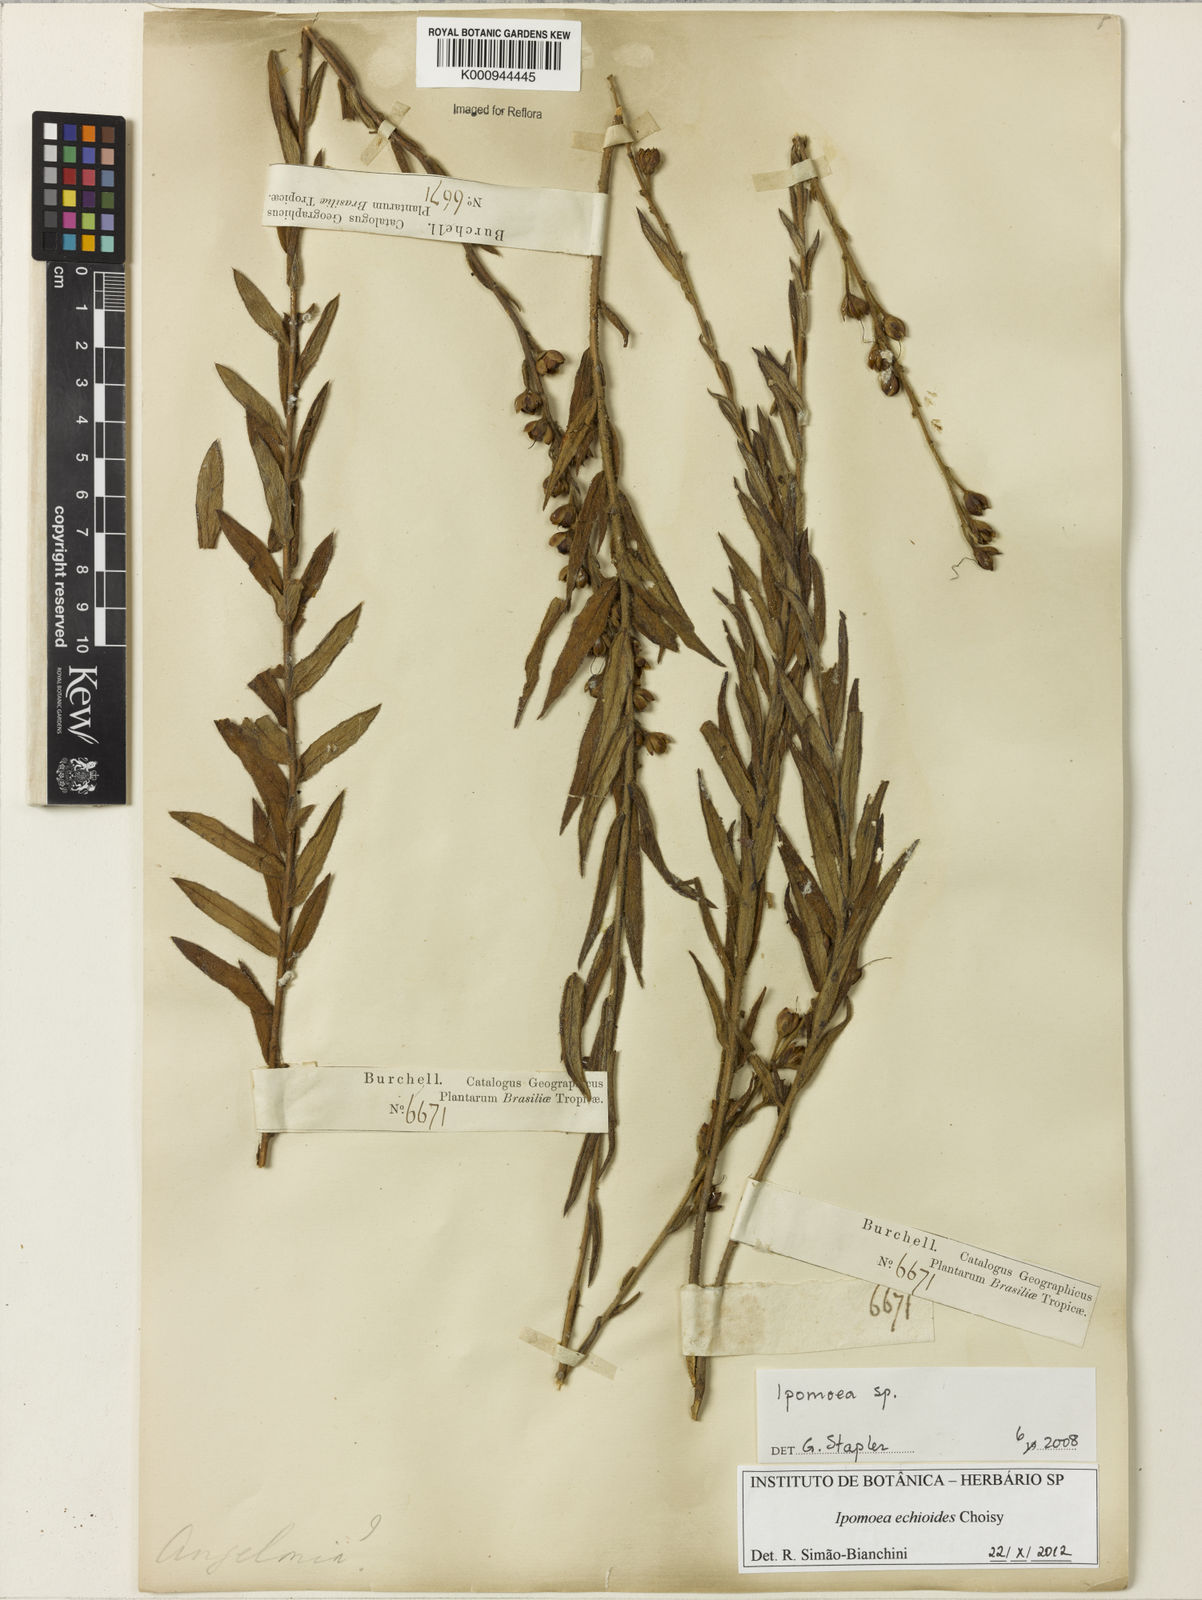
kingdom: Plantae
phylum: Tracheophyta
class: Magnoliopsida
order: Solanales
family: Convolvulaceae
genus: Ipomoea
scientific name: Ipomoea paulistana
